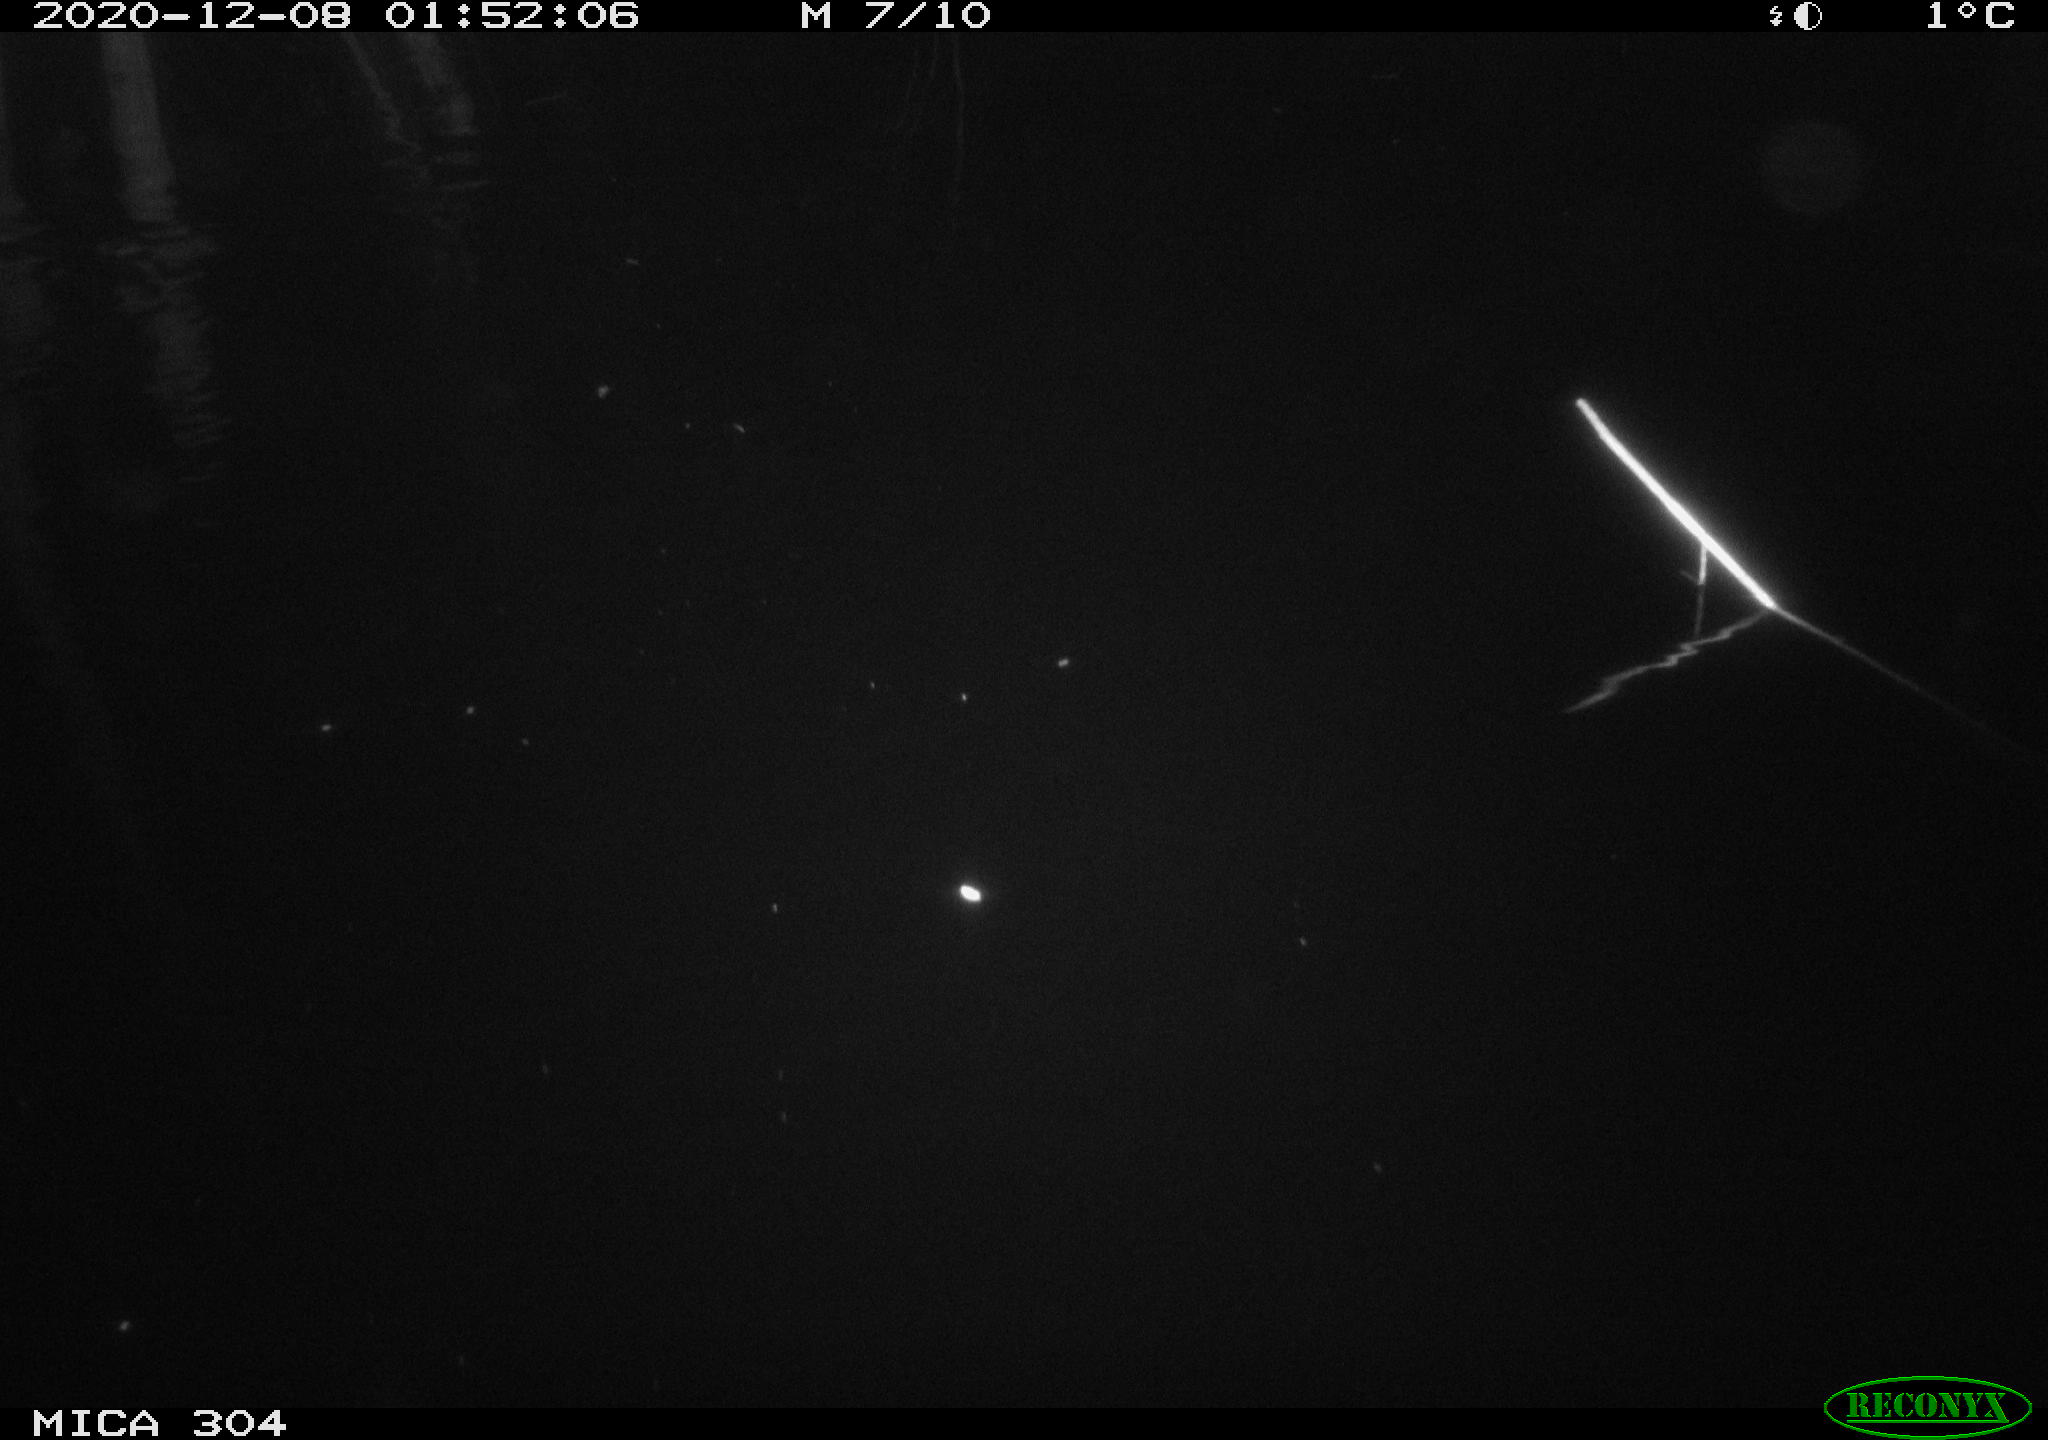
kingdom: Animalia
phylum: Chordata
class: Mammalia
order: Rodentia
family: Muridae
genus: Rattus
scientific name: Rattus norvegicus
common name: Brown rat
